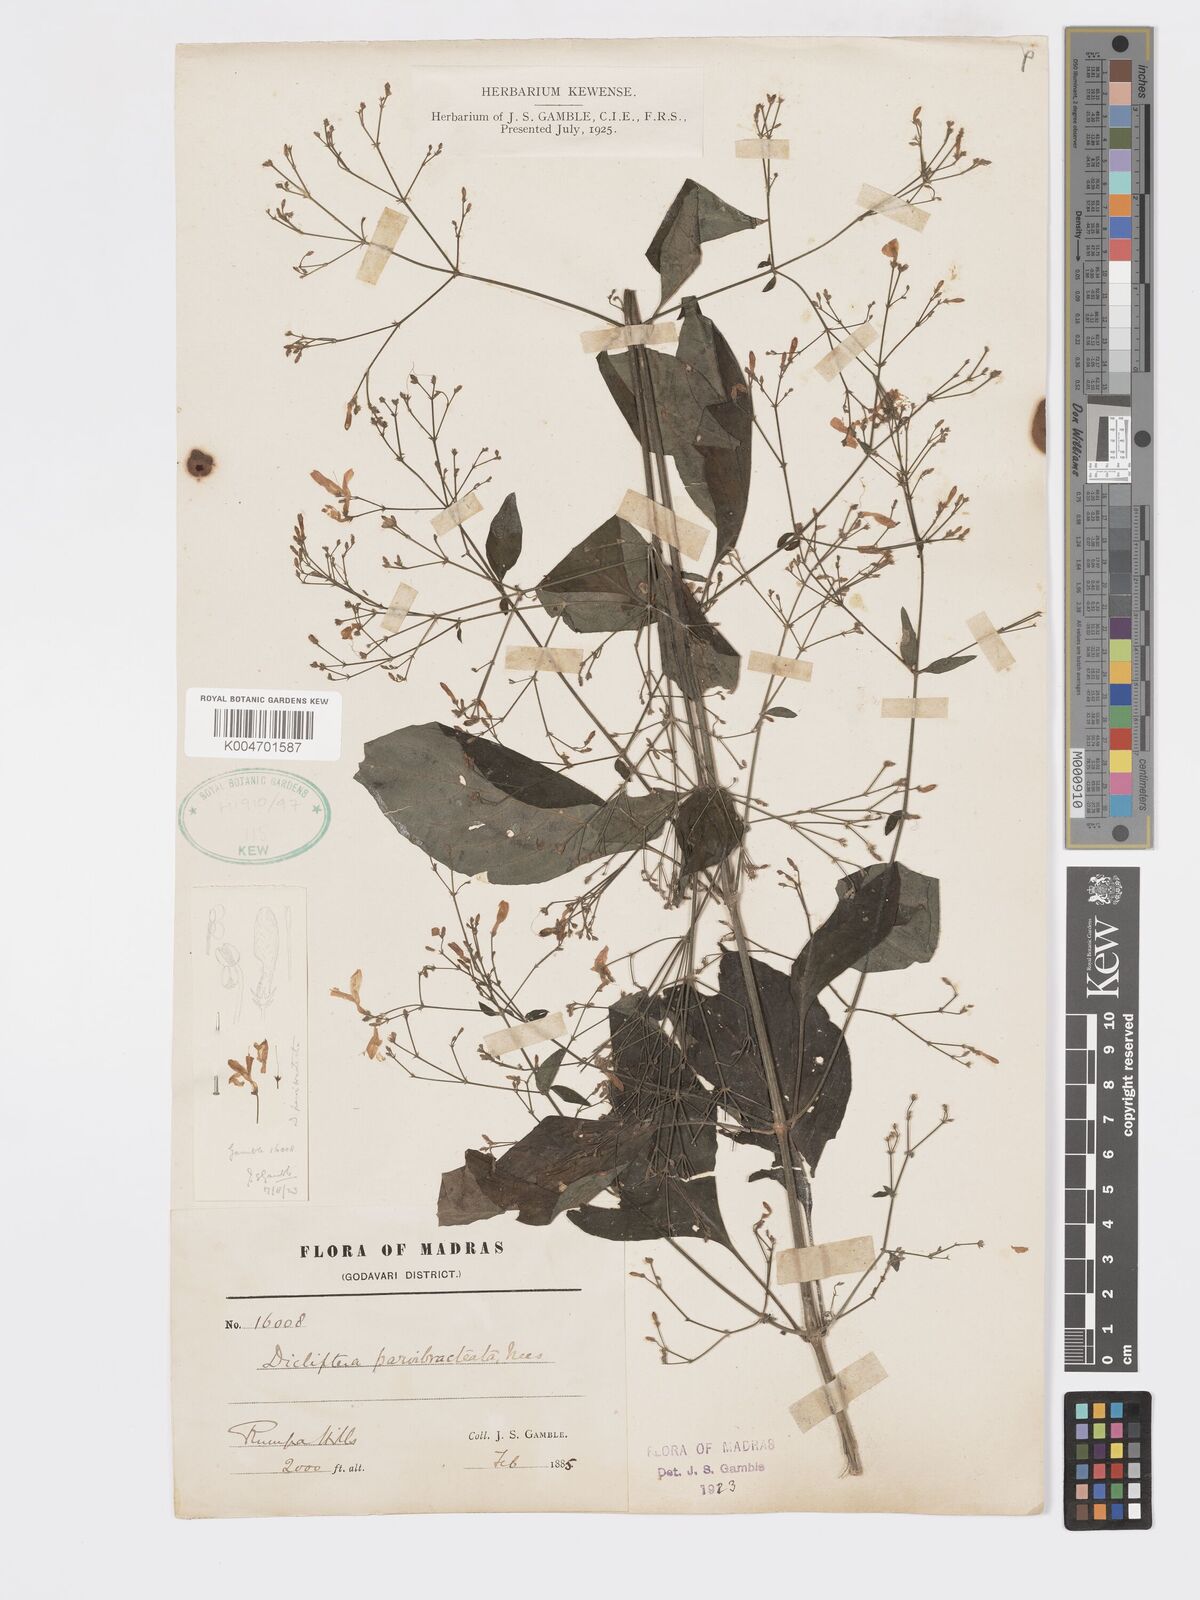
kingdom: Plantae
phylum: Tracheophyta
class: Magnoliopsida
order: Lamiales
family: Acanthaceae
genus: Dicliptera
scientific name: Dicliptera parvibracteata
